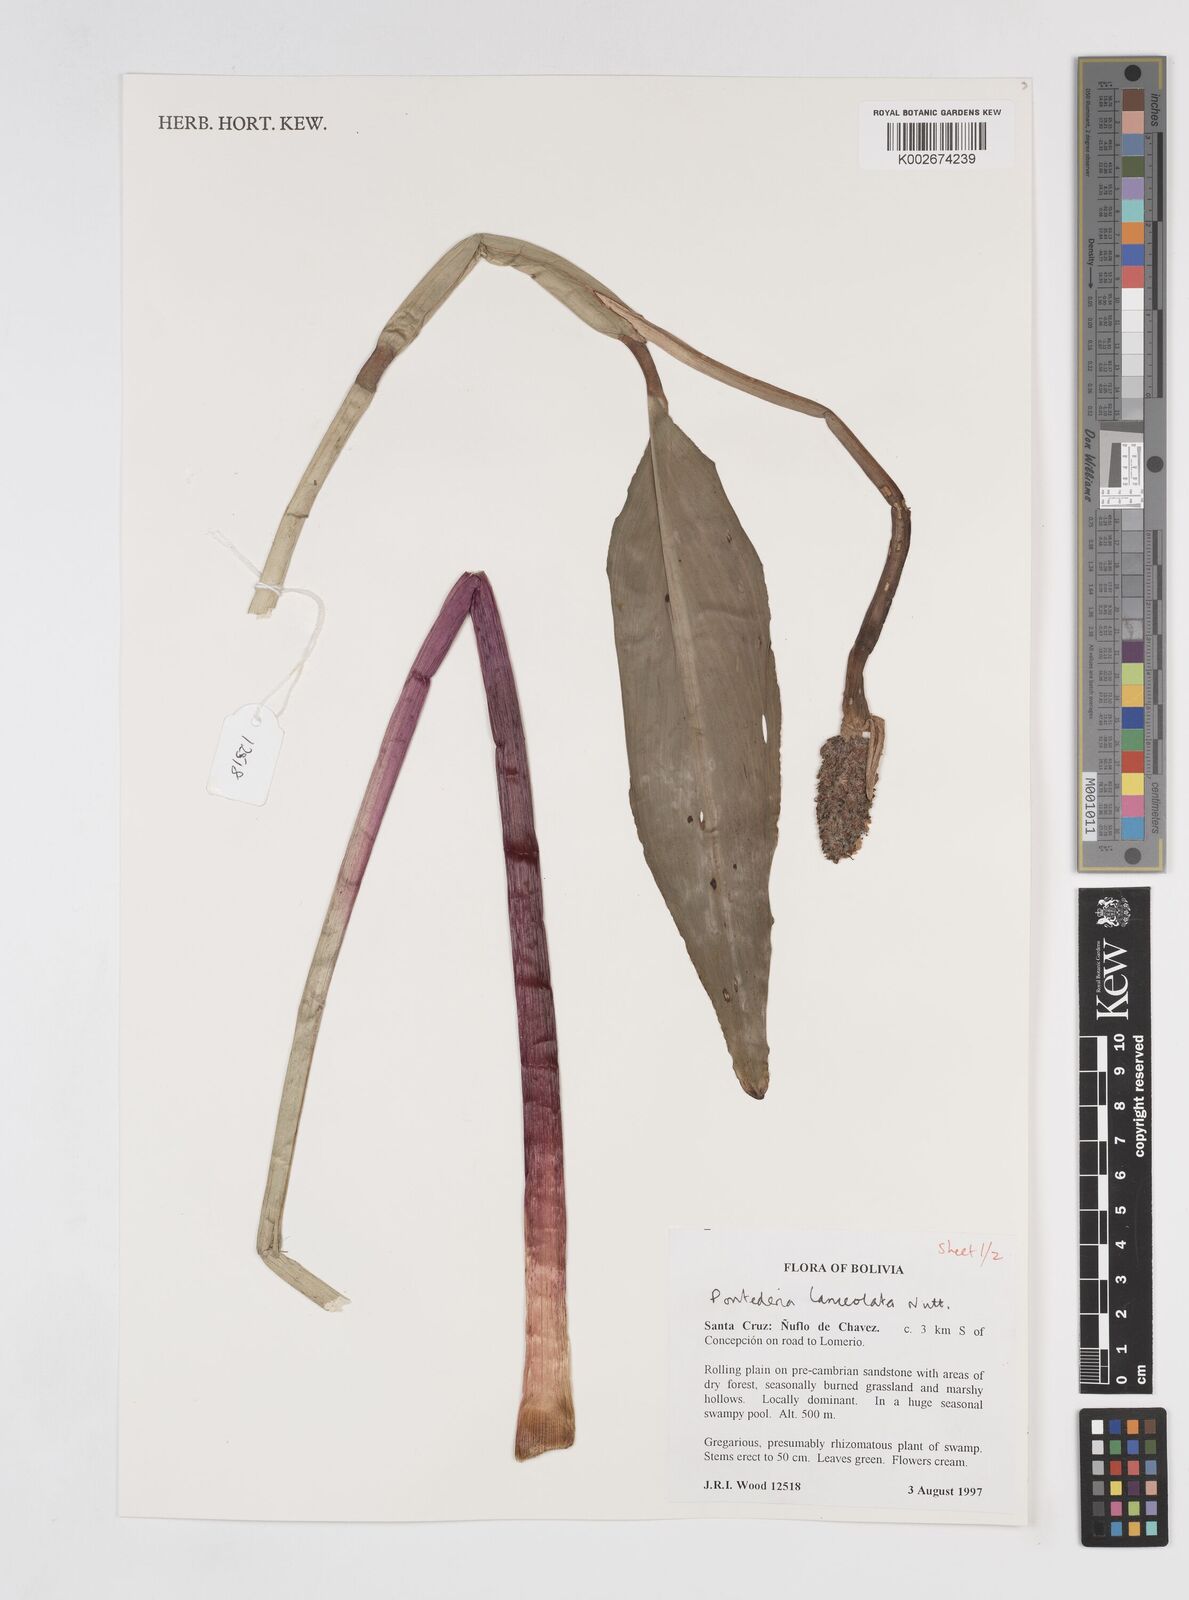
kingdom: Plantae
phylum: Tracheophyta
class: Liliopsida
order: Commelinales
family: Pontederiaceae
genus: Pontederia
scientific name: Pontederia
